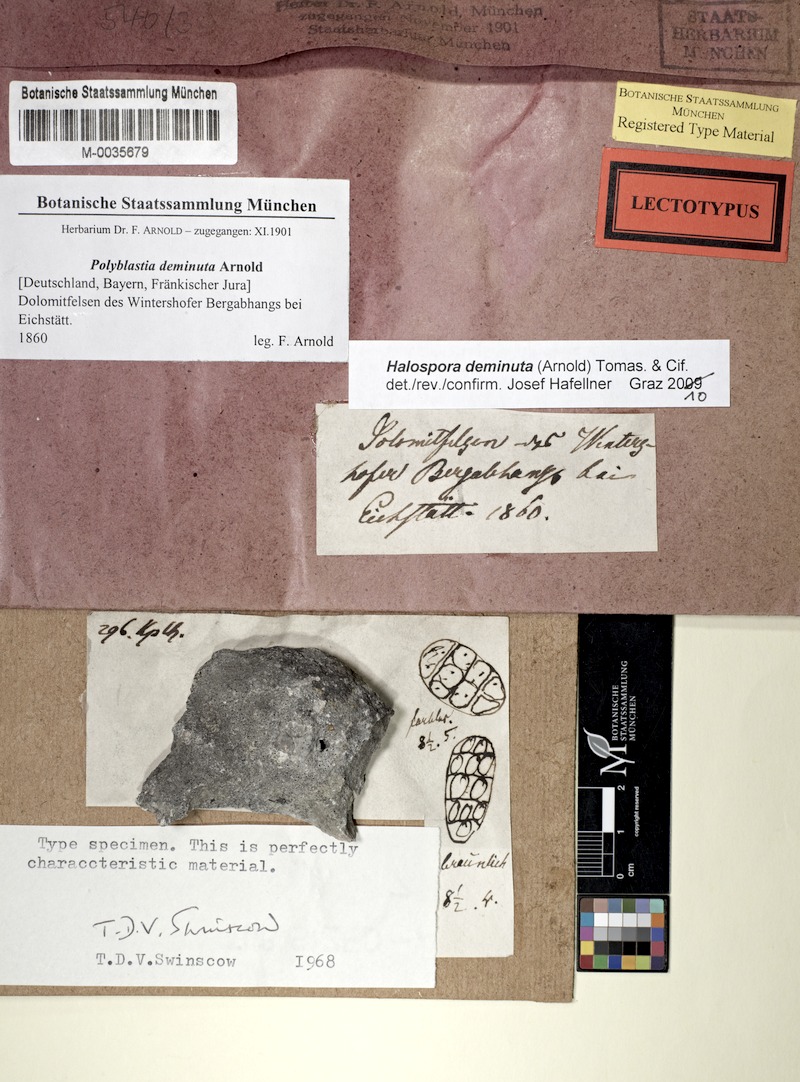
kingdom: Fungi
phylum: Ascomycota
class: Eurotiomycetes
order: Verrucariales
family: Verrucariaceae
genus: Merismatium
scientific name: Merismatium deminutum
